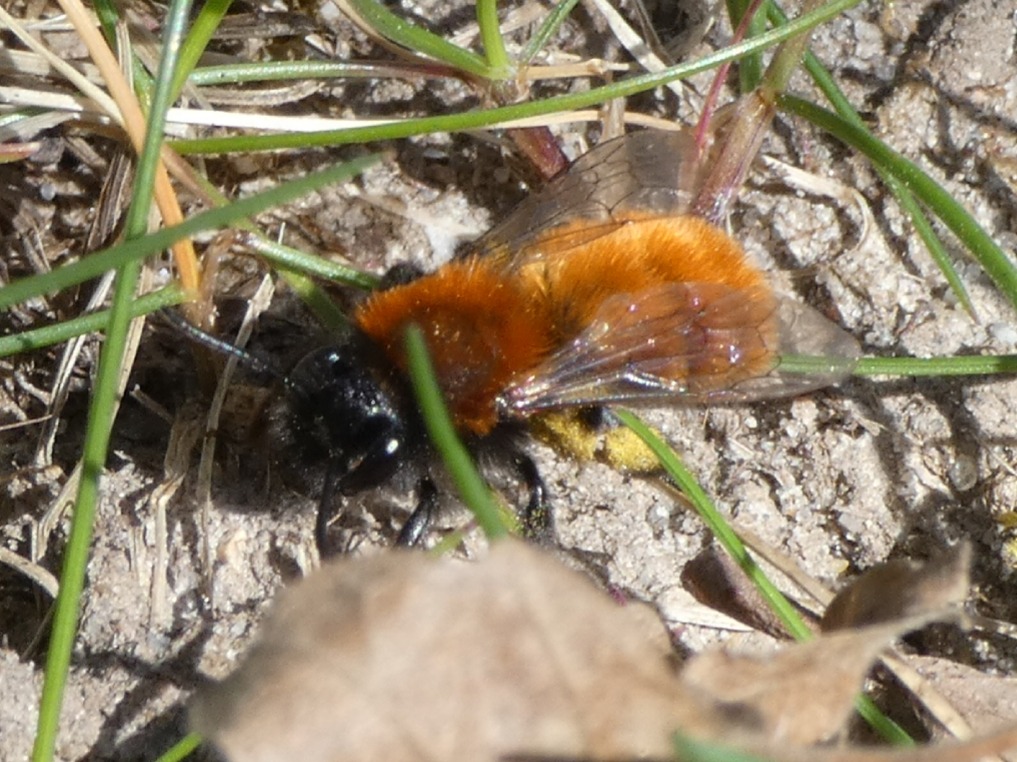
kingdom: Animalia
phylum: Arthropoda
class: Insecta
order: Hymenoptera
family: Andrenidae
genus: Andrena
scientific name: Andrena fulva
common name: Rødpelset jordbi
